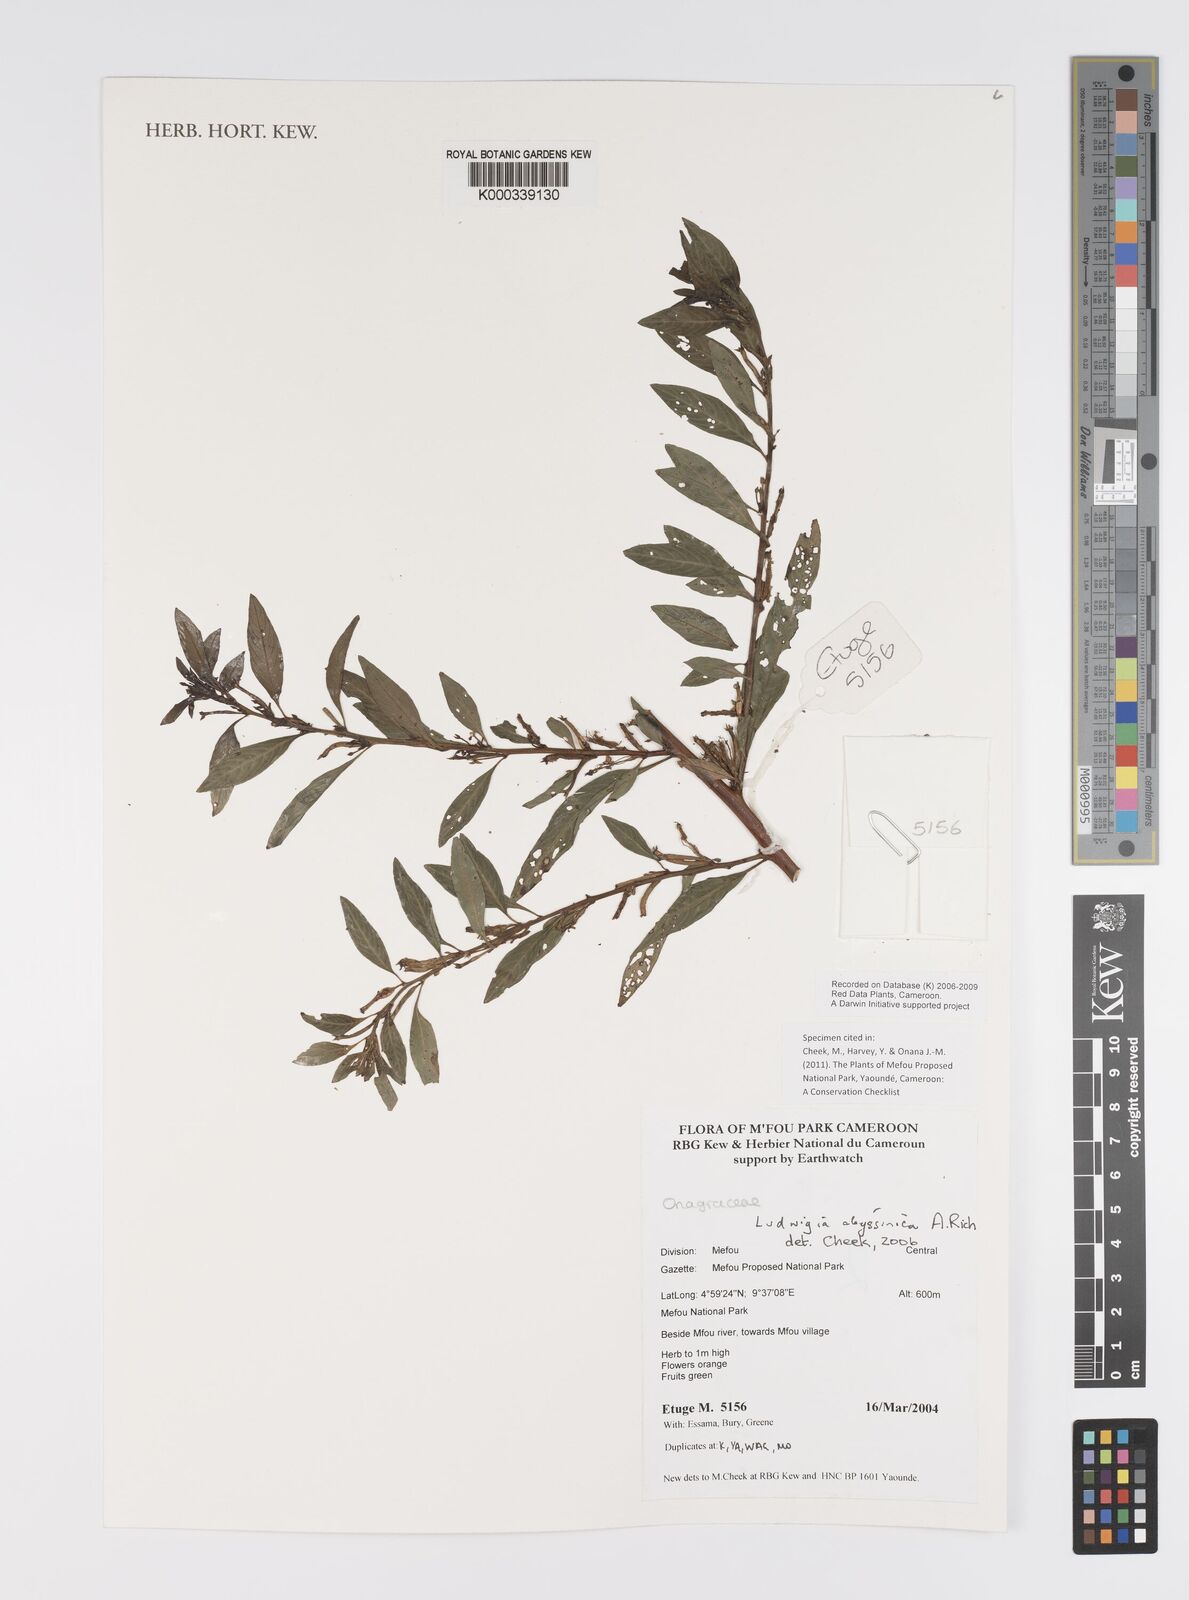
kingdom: Plantae
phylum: Tracheophyta
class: Magnoliopsida
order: Myrtales
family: Onagraceae
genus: Ludwigia
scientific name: Ludwigia abyssinica
